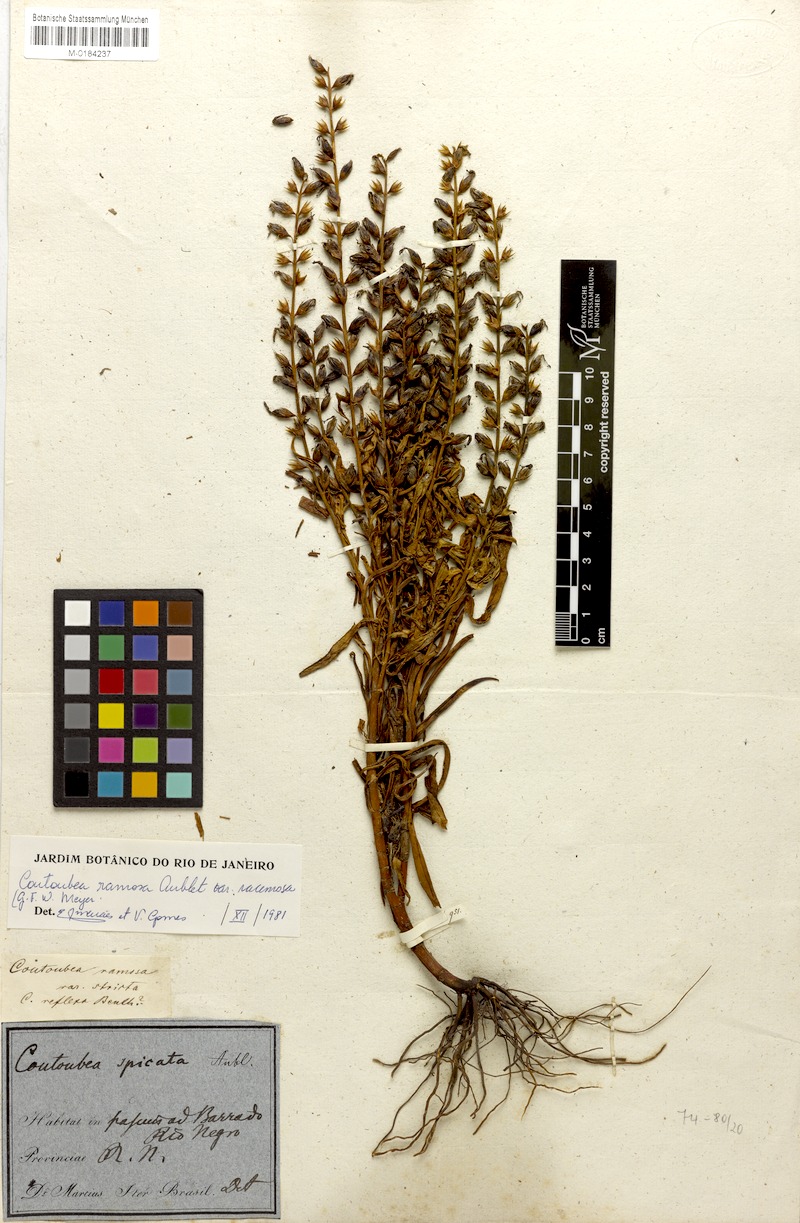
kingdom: Plantae
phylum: Tracheophyta
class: Magnoliopsida
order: Gentianales
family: Gentianaceae
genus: Coutoubea
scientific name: Coutoubea ramosa
